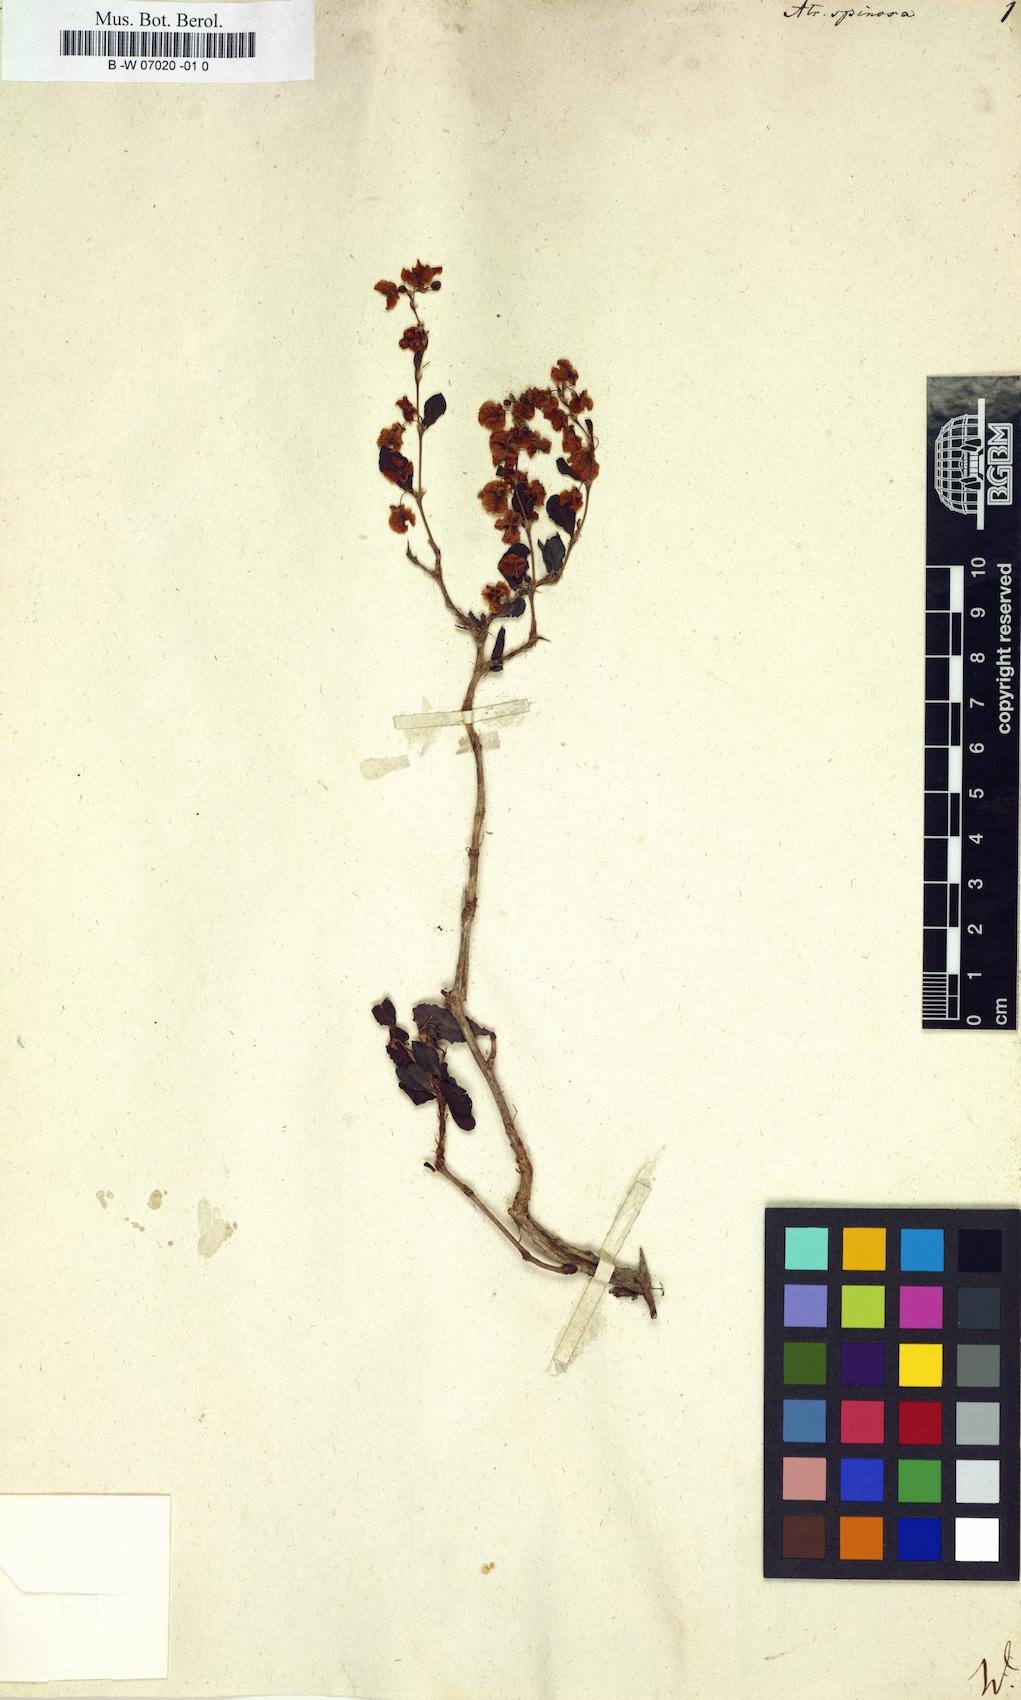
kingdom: Plantae
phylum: Tracheophyta
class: Magnoliopsida
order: Caryophyllales
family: Polygonaceae
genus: Atraphaxis
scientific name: Atraphaxis spinosa
